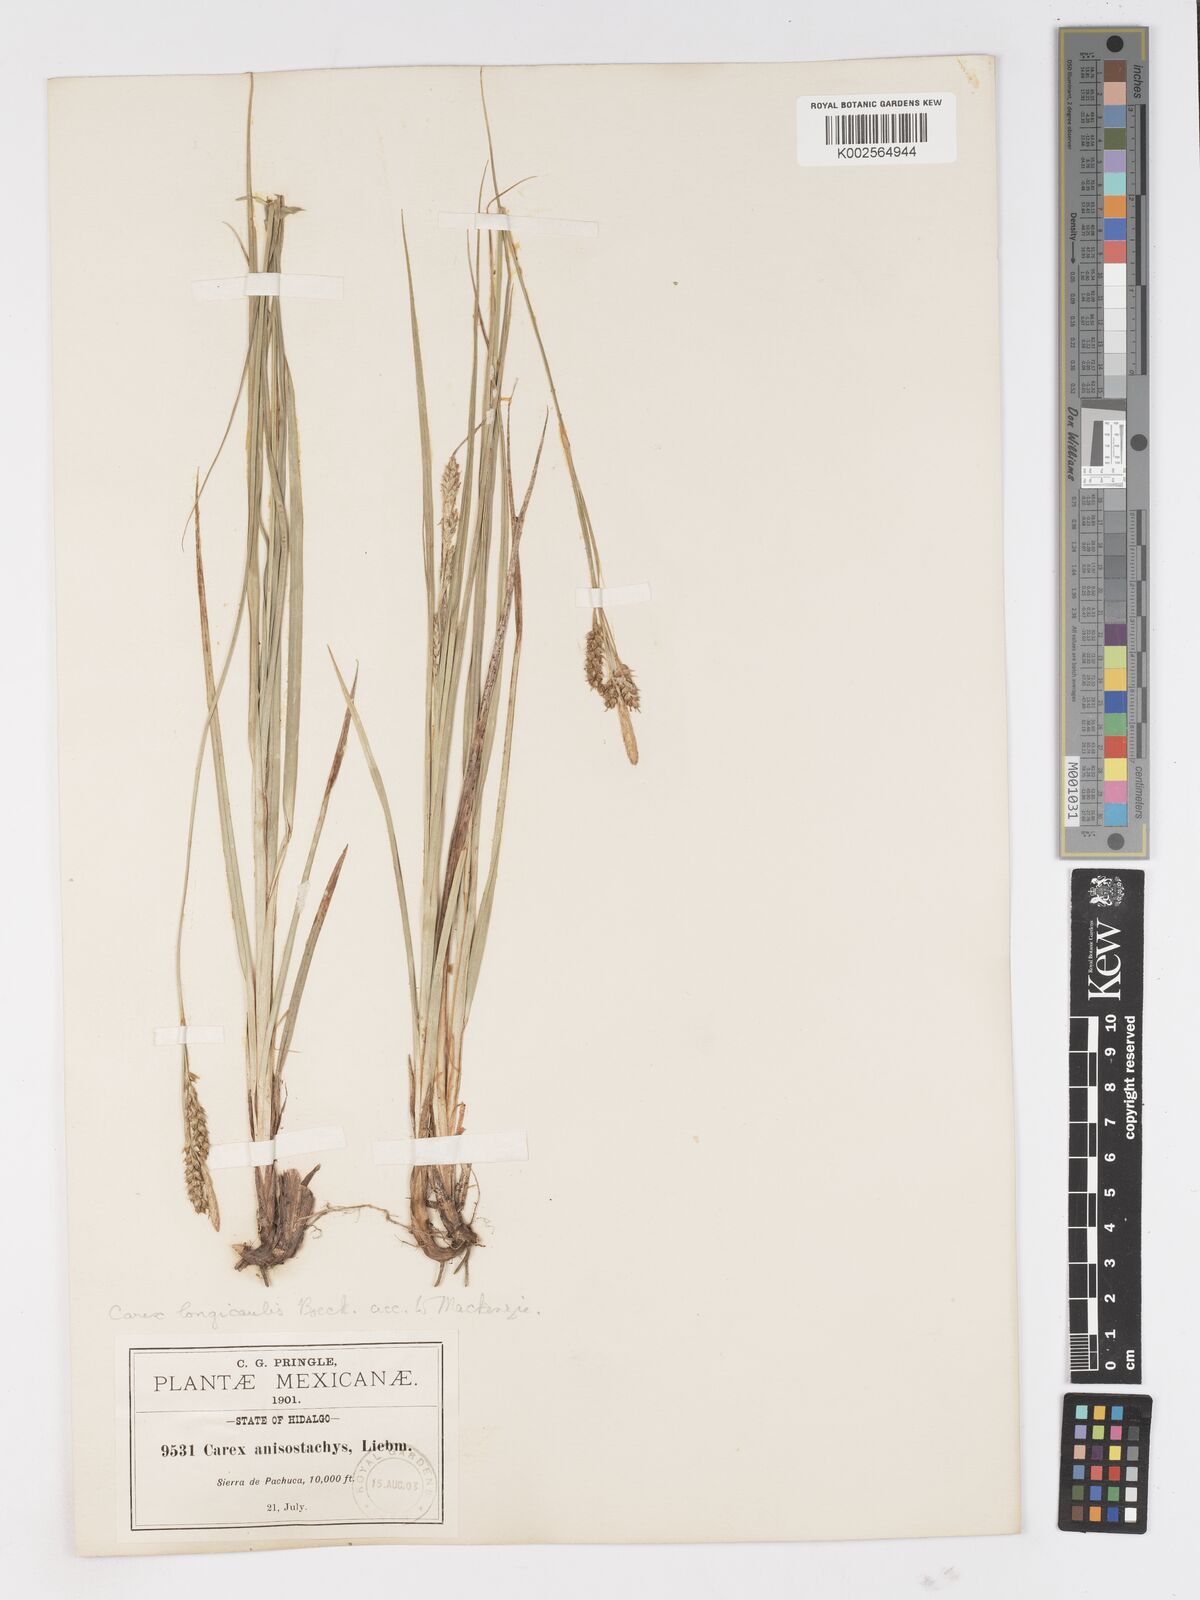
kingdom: Plantae
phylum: Tracheophyta
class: Liliopsida
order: Poales
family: Cyperaceae
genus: Carex
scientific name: Carex longicaulis
